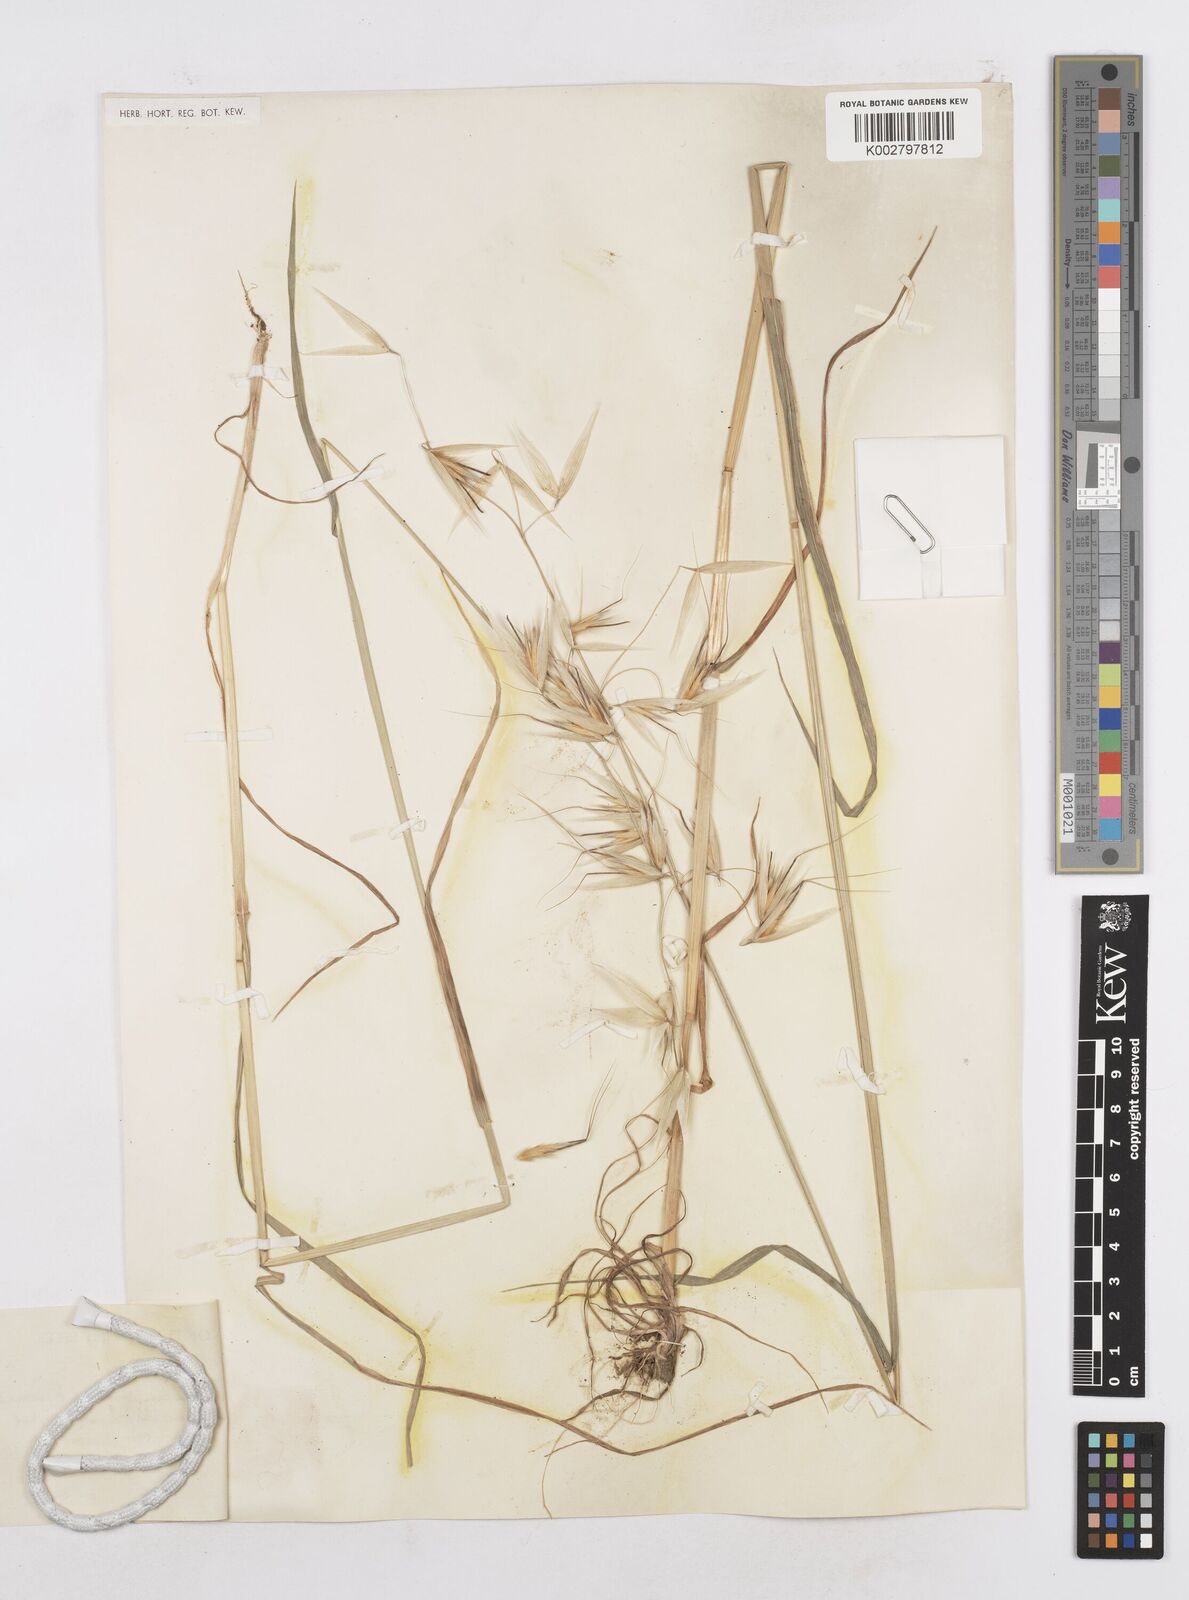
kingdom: Plantae
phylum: Tracheophyta
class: Liliopsida
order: Poales
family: Poaceae
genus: Avena
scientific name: Avena sterilis
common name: Animated oat
